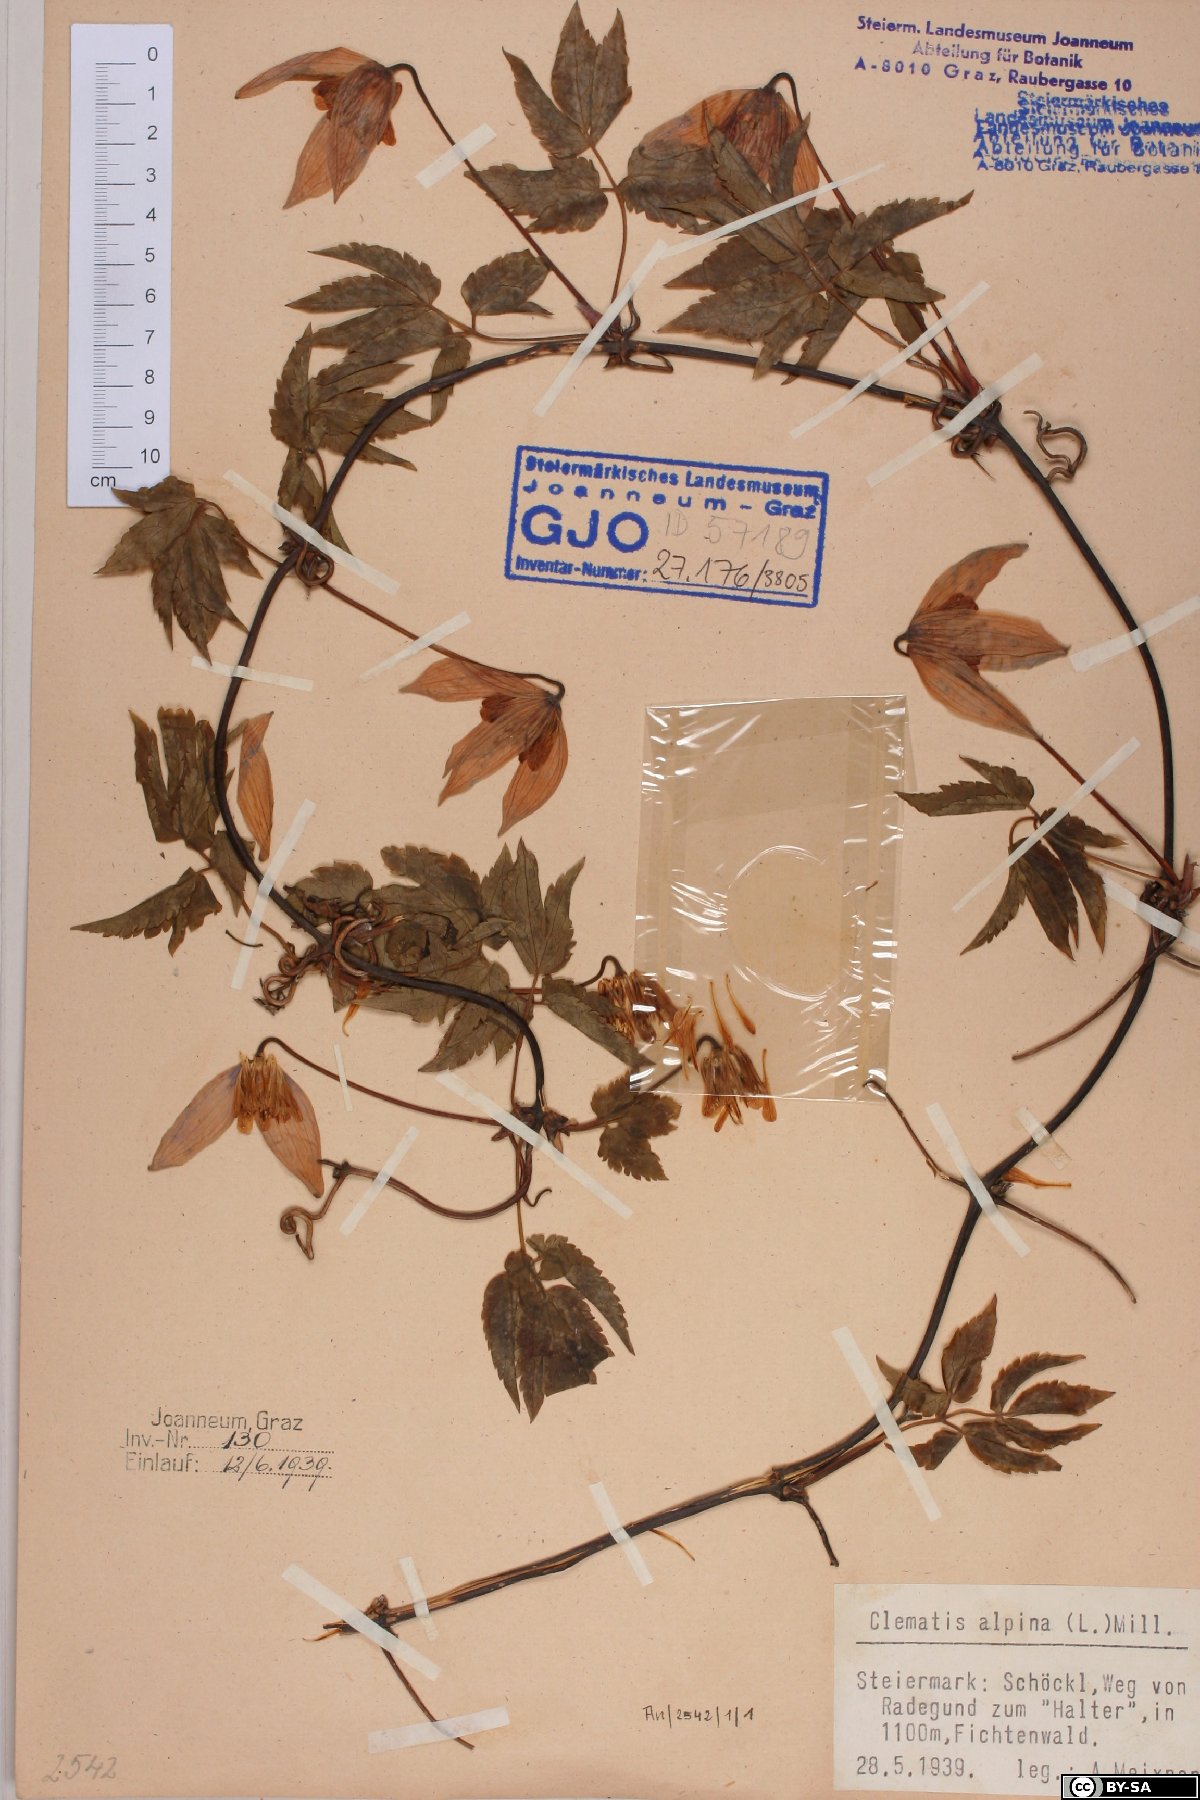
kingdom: Plantae
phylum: Tracheophyta
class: Magnoliopsida
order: Ranunculales
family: Ranunculaceae
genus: Clematis
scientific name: Clematis alpina
